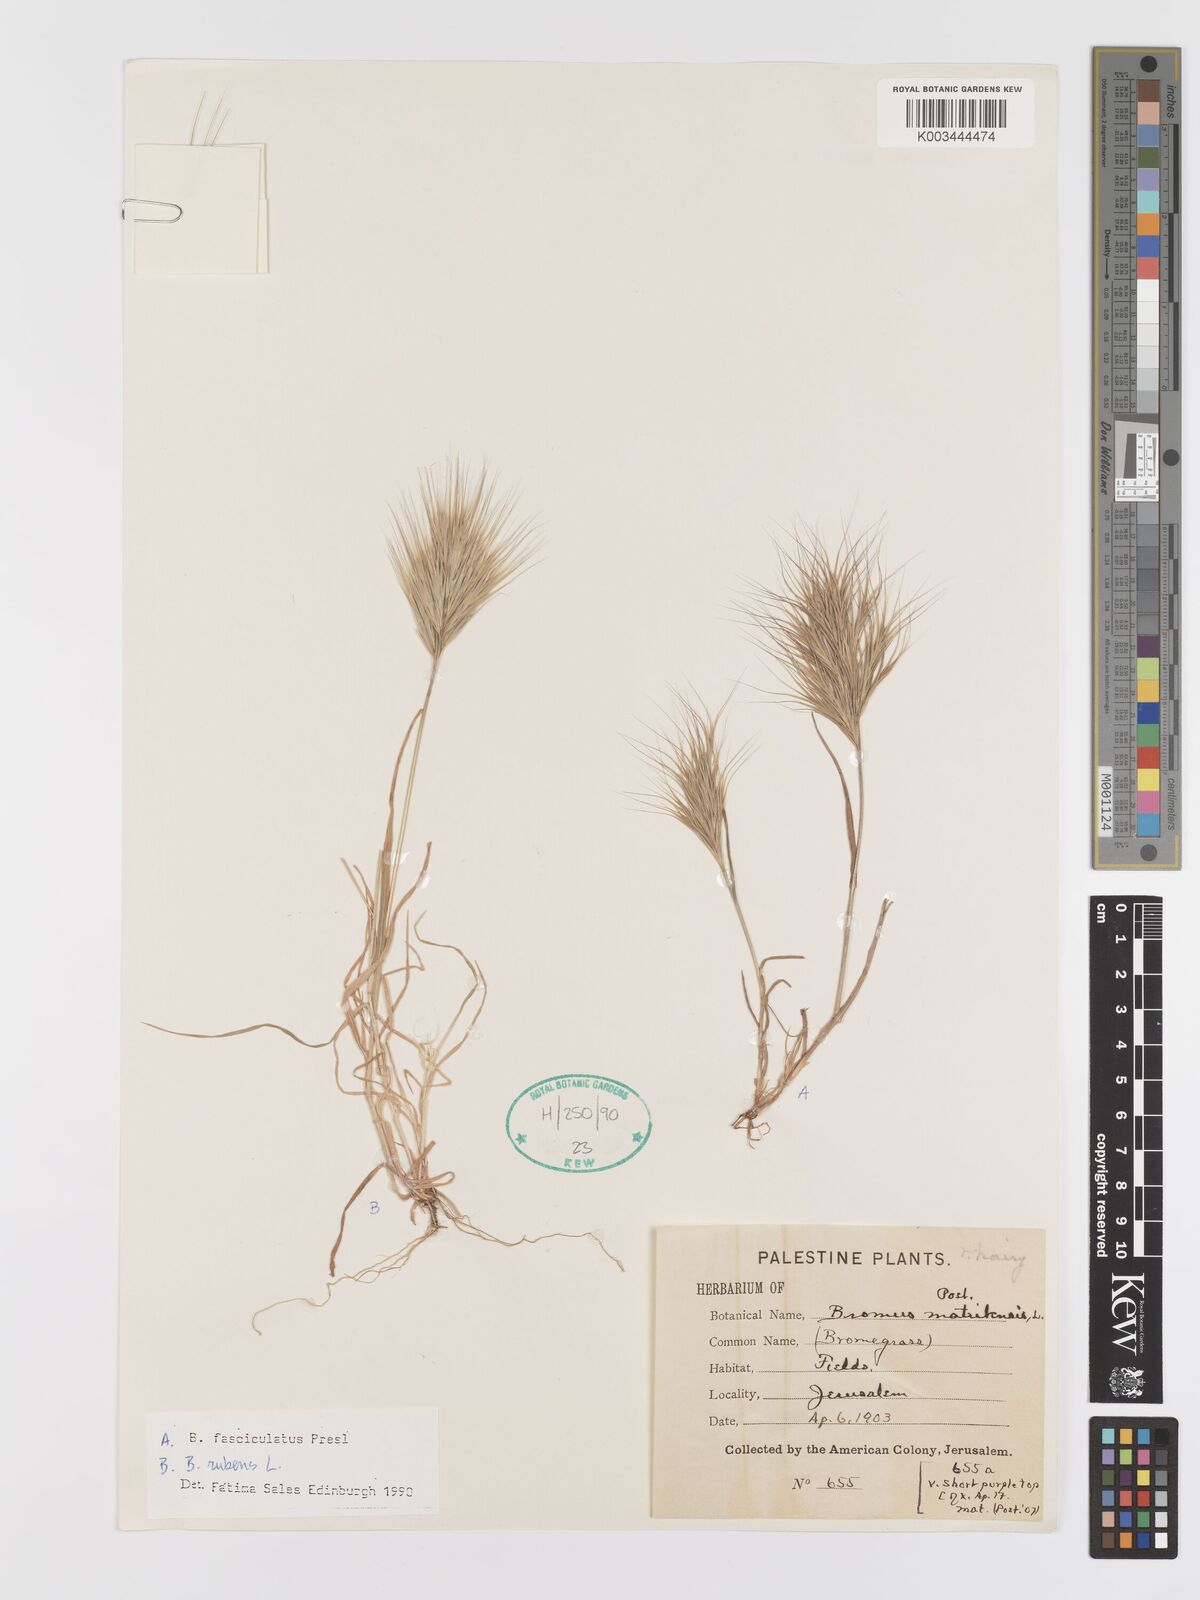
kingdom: Plantae
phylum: Tracheophyta
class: Liliopsida
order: Poales
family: Poaceae
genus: Bromus
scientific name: Bromus fasciculatus
